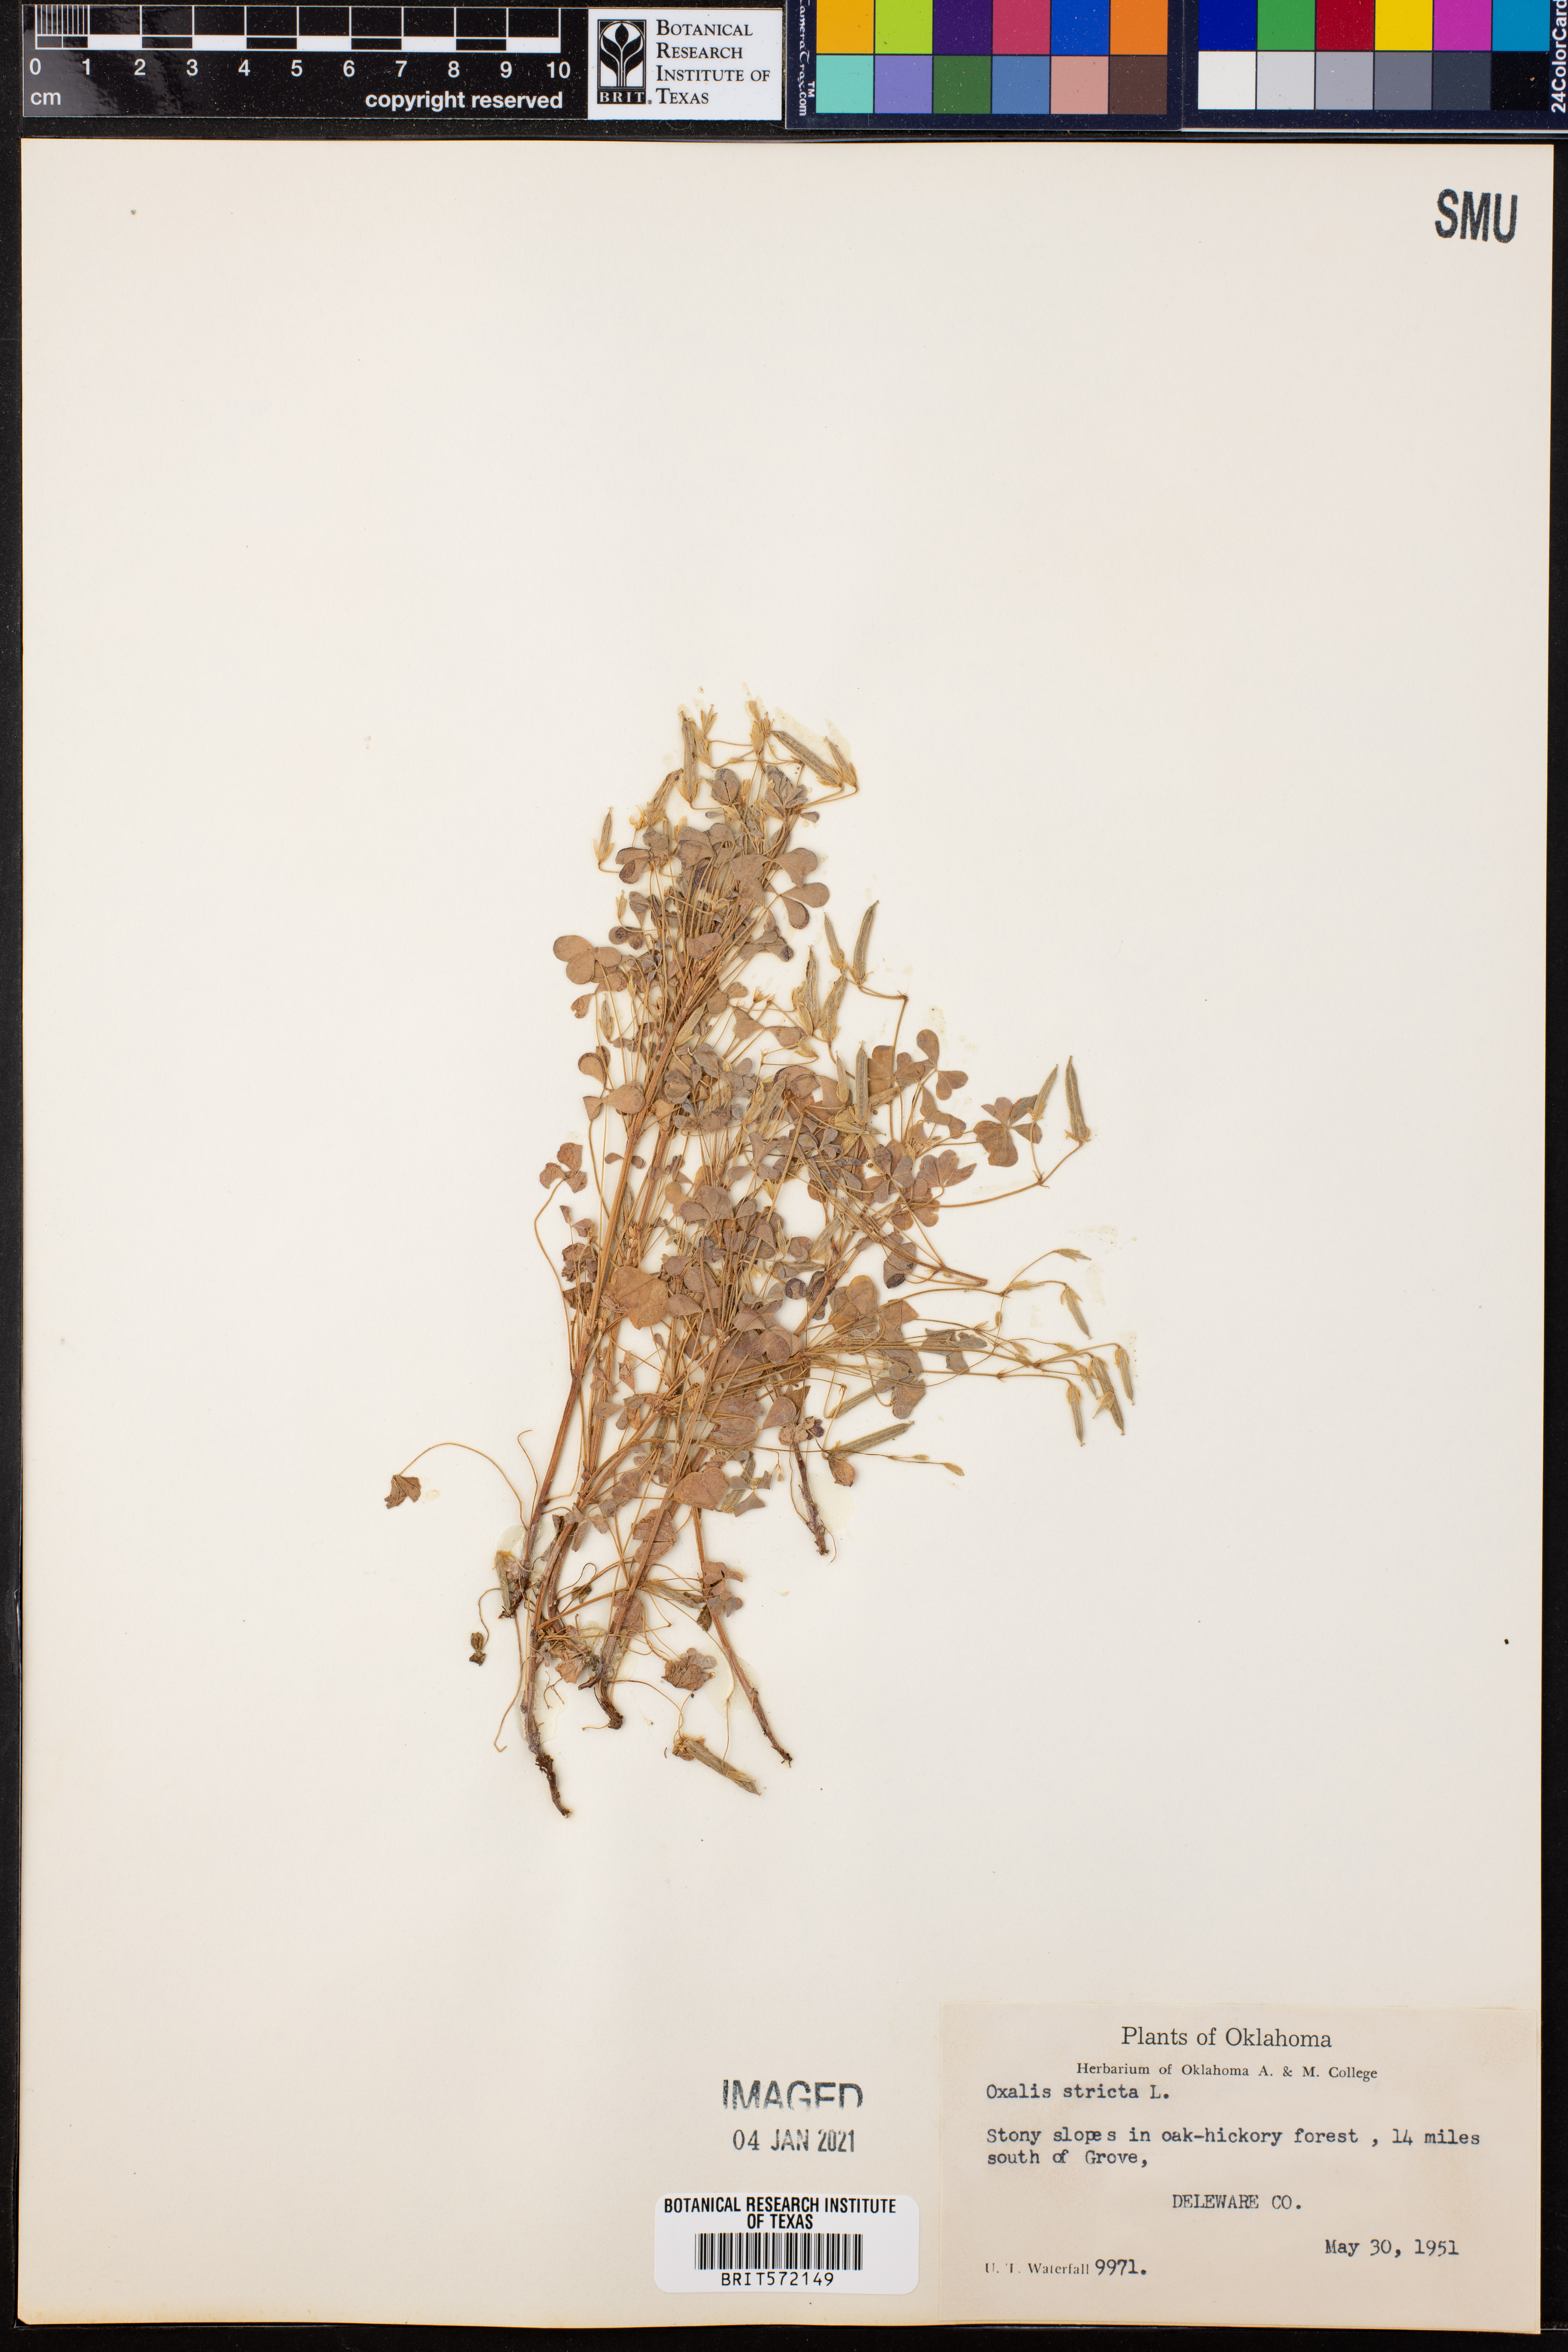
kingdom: Plantae
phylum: Tracheophyta
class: Magnoliopsida
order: Oxalidales
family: Oxalidaceae
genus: Oxalis
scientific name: Oxalis stricta
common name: Upright yellow-sorrel
